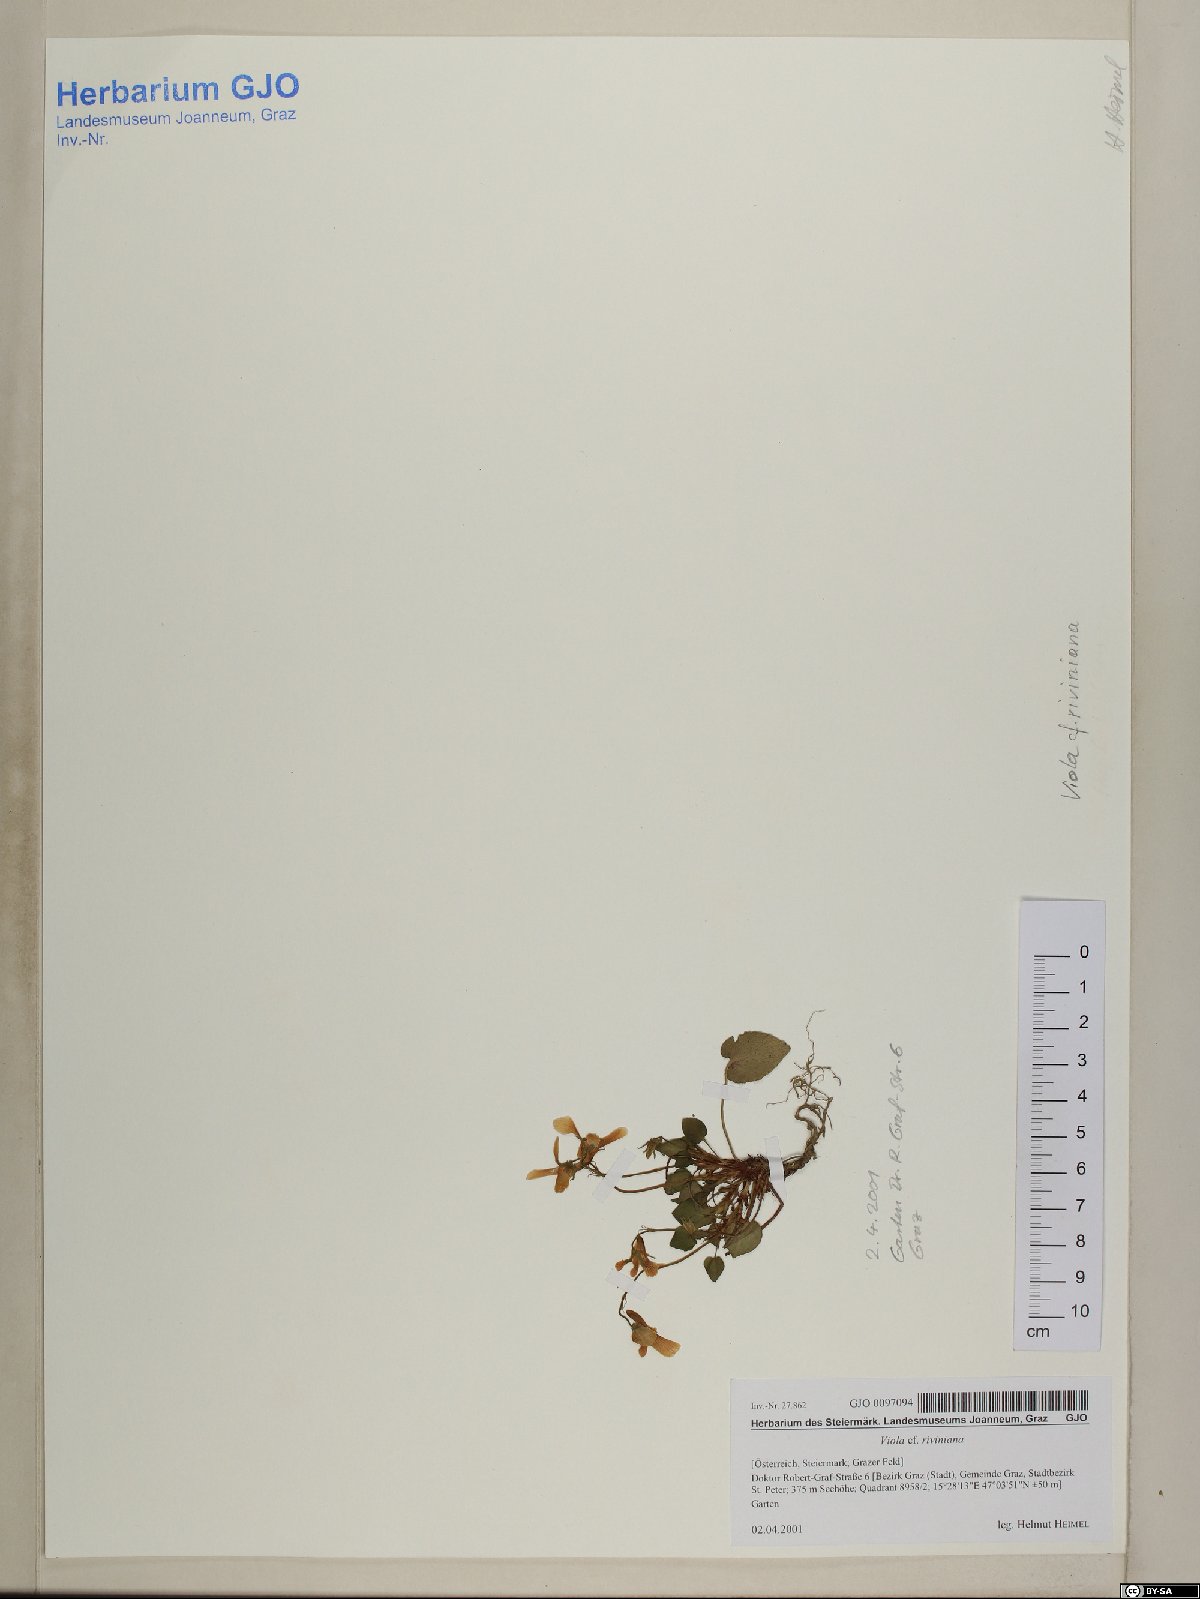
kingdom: Plantae
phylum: Tracheophyta
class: Magnoliopsida
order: Malpighiales
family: Violaceae
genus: Viola
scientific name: Viola riviniana
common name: Common dog-violet
